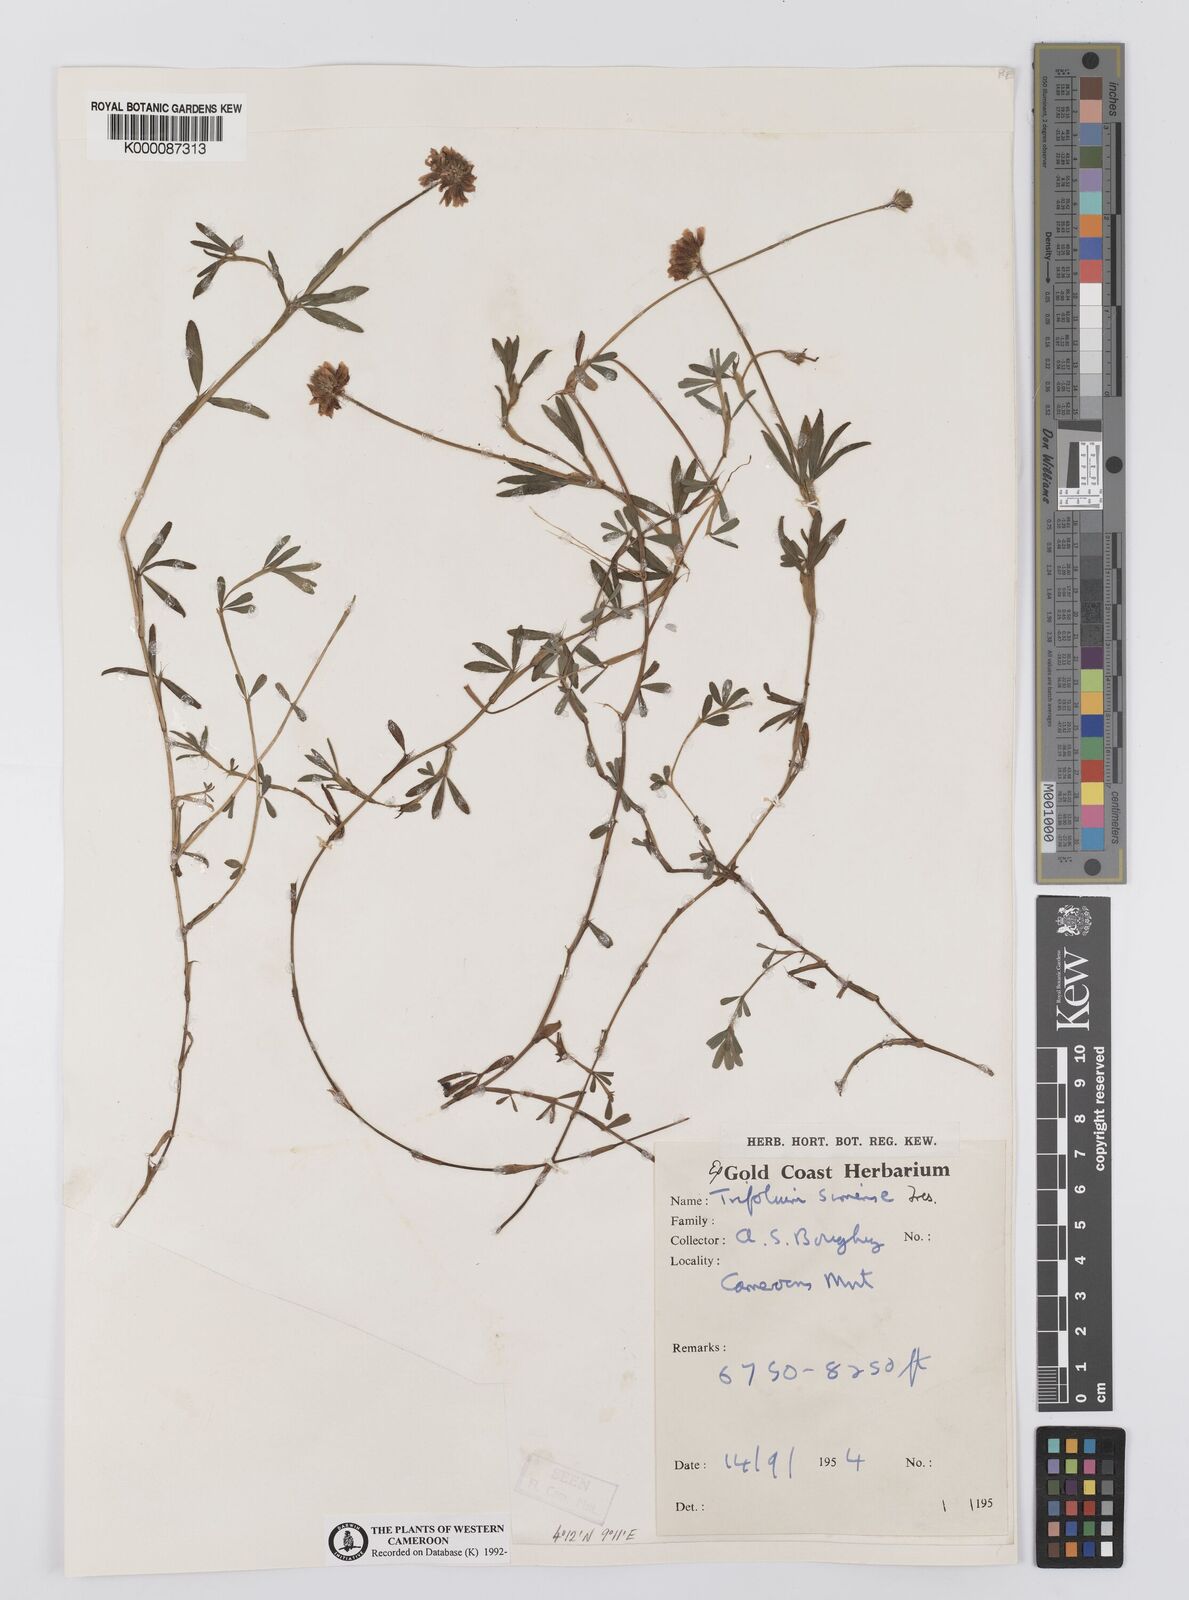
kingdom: Plantae
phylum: Tracheophyta
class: Magnoliopsida
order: Fabales
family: Fabaceae
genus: Trifolium
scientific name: Trifolium simense
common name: Simen clover
